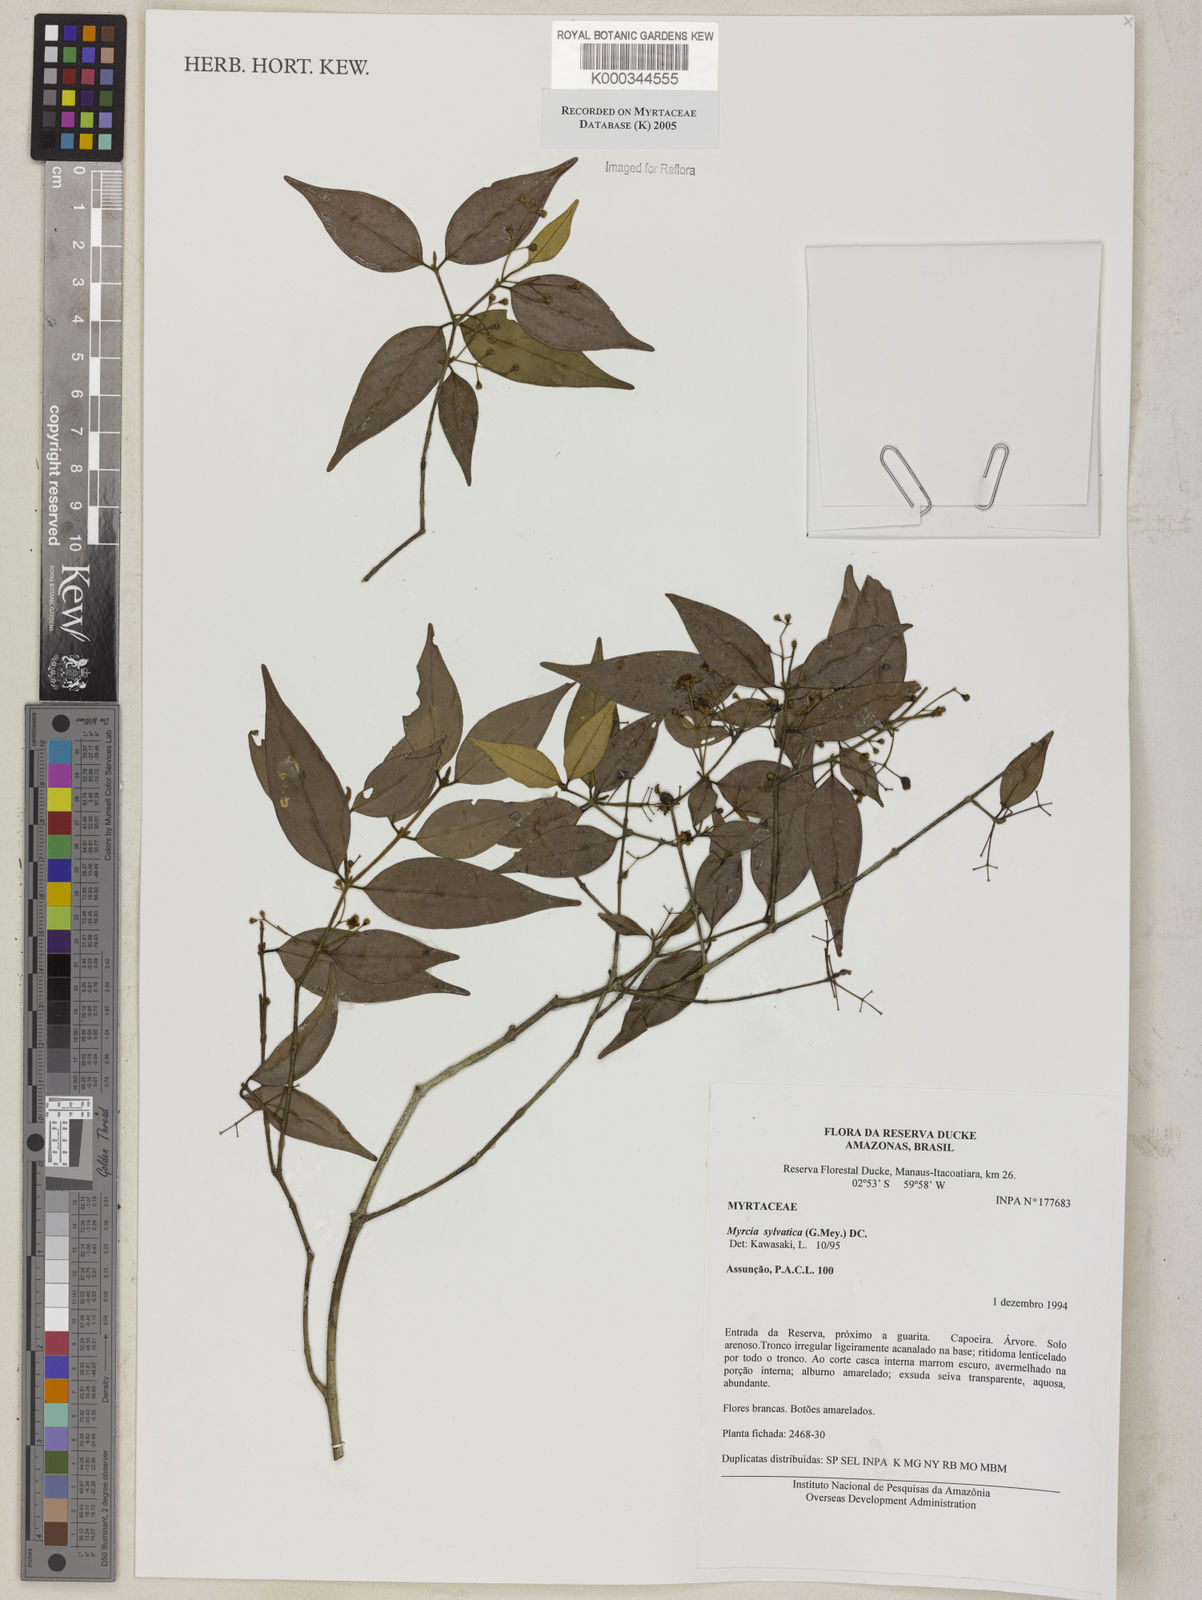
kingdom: Plantae
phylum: Tracheophyta
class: Magnoliopsida
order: Myrtales
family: Myrtaceae
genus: Myrcia
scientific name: Myrcia sylvatica
